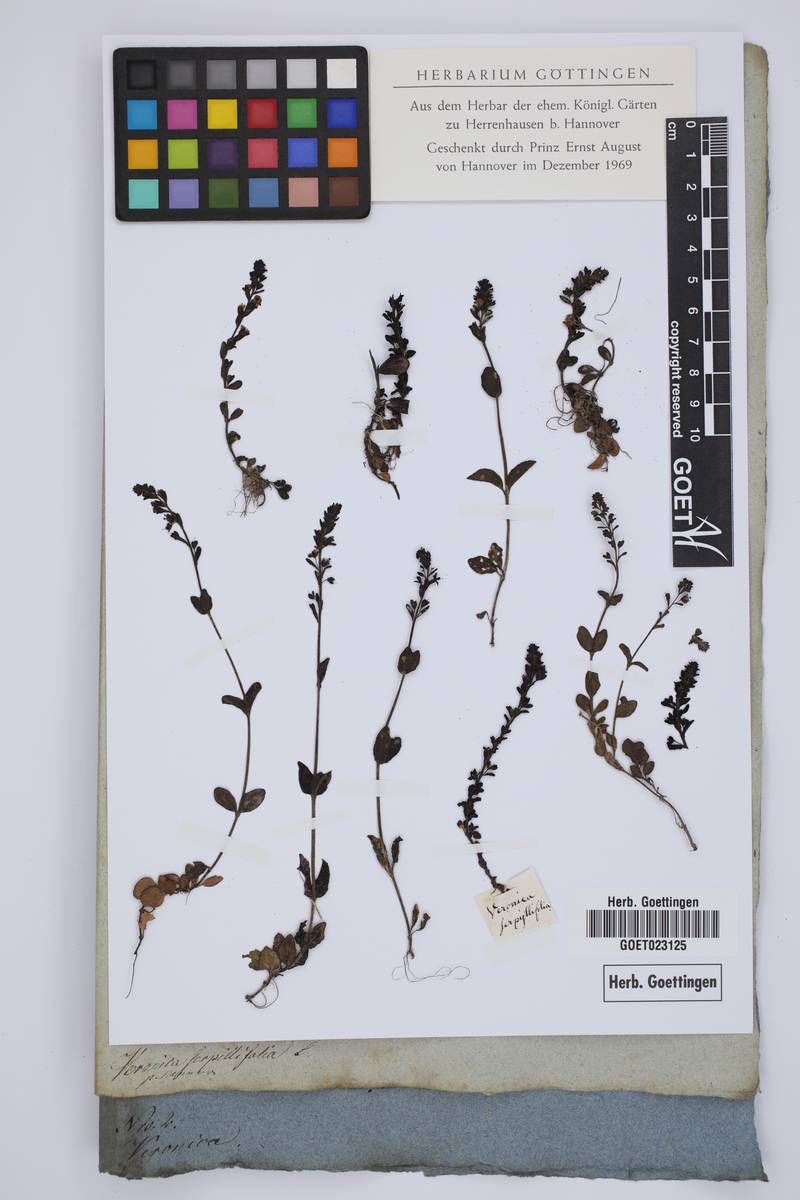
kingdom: Plantae
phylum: Tracheophyta
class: Magnoliopsida
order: Lamiales
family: Plantaginaceae
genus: Veronica
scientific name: Veronica serpyllifolia
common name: Thyme-leaved speedwell
